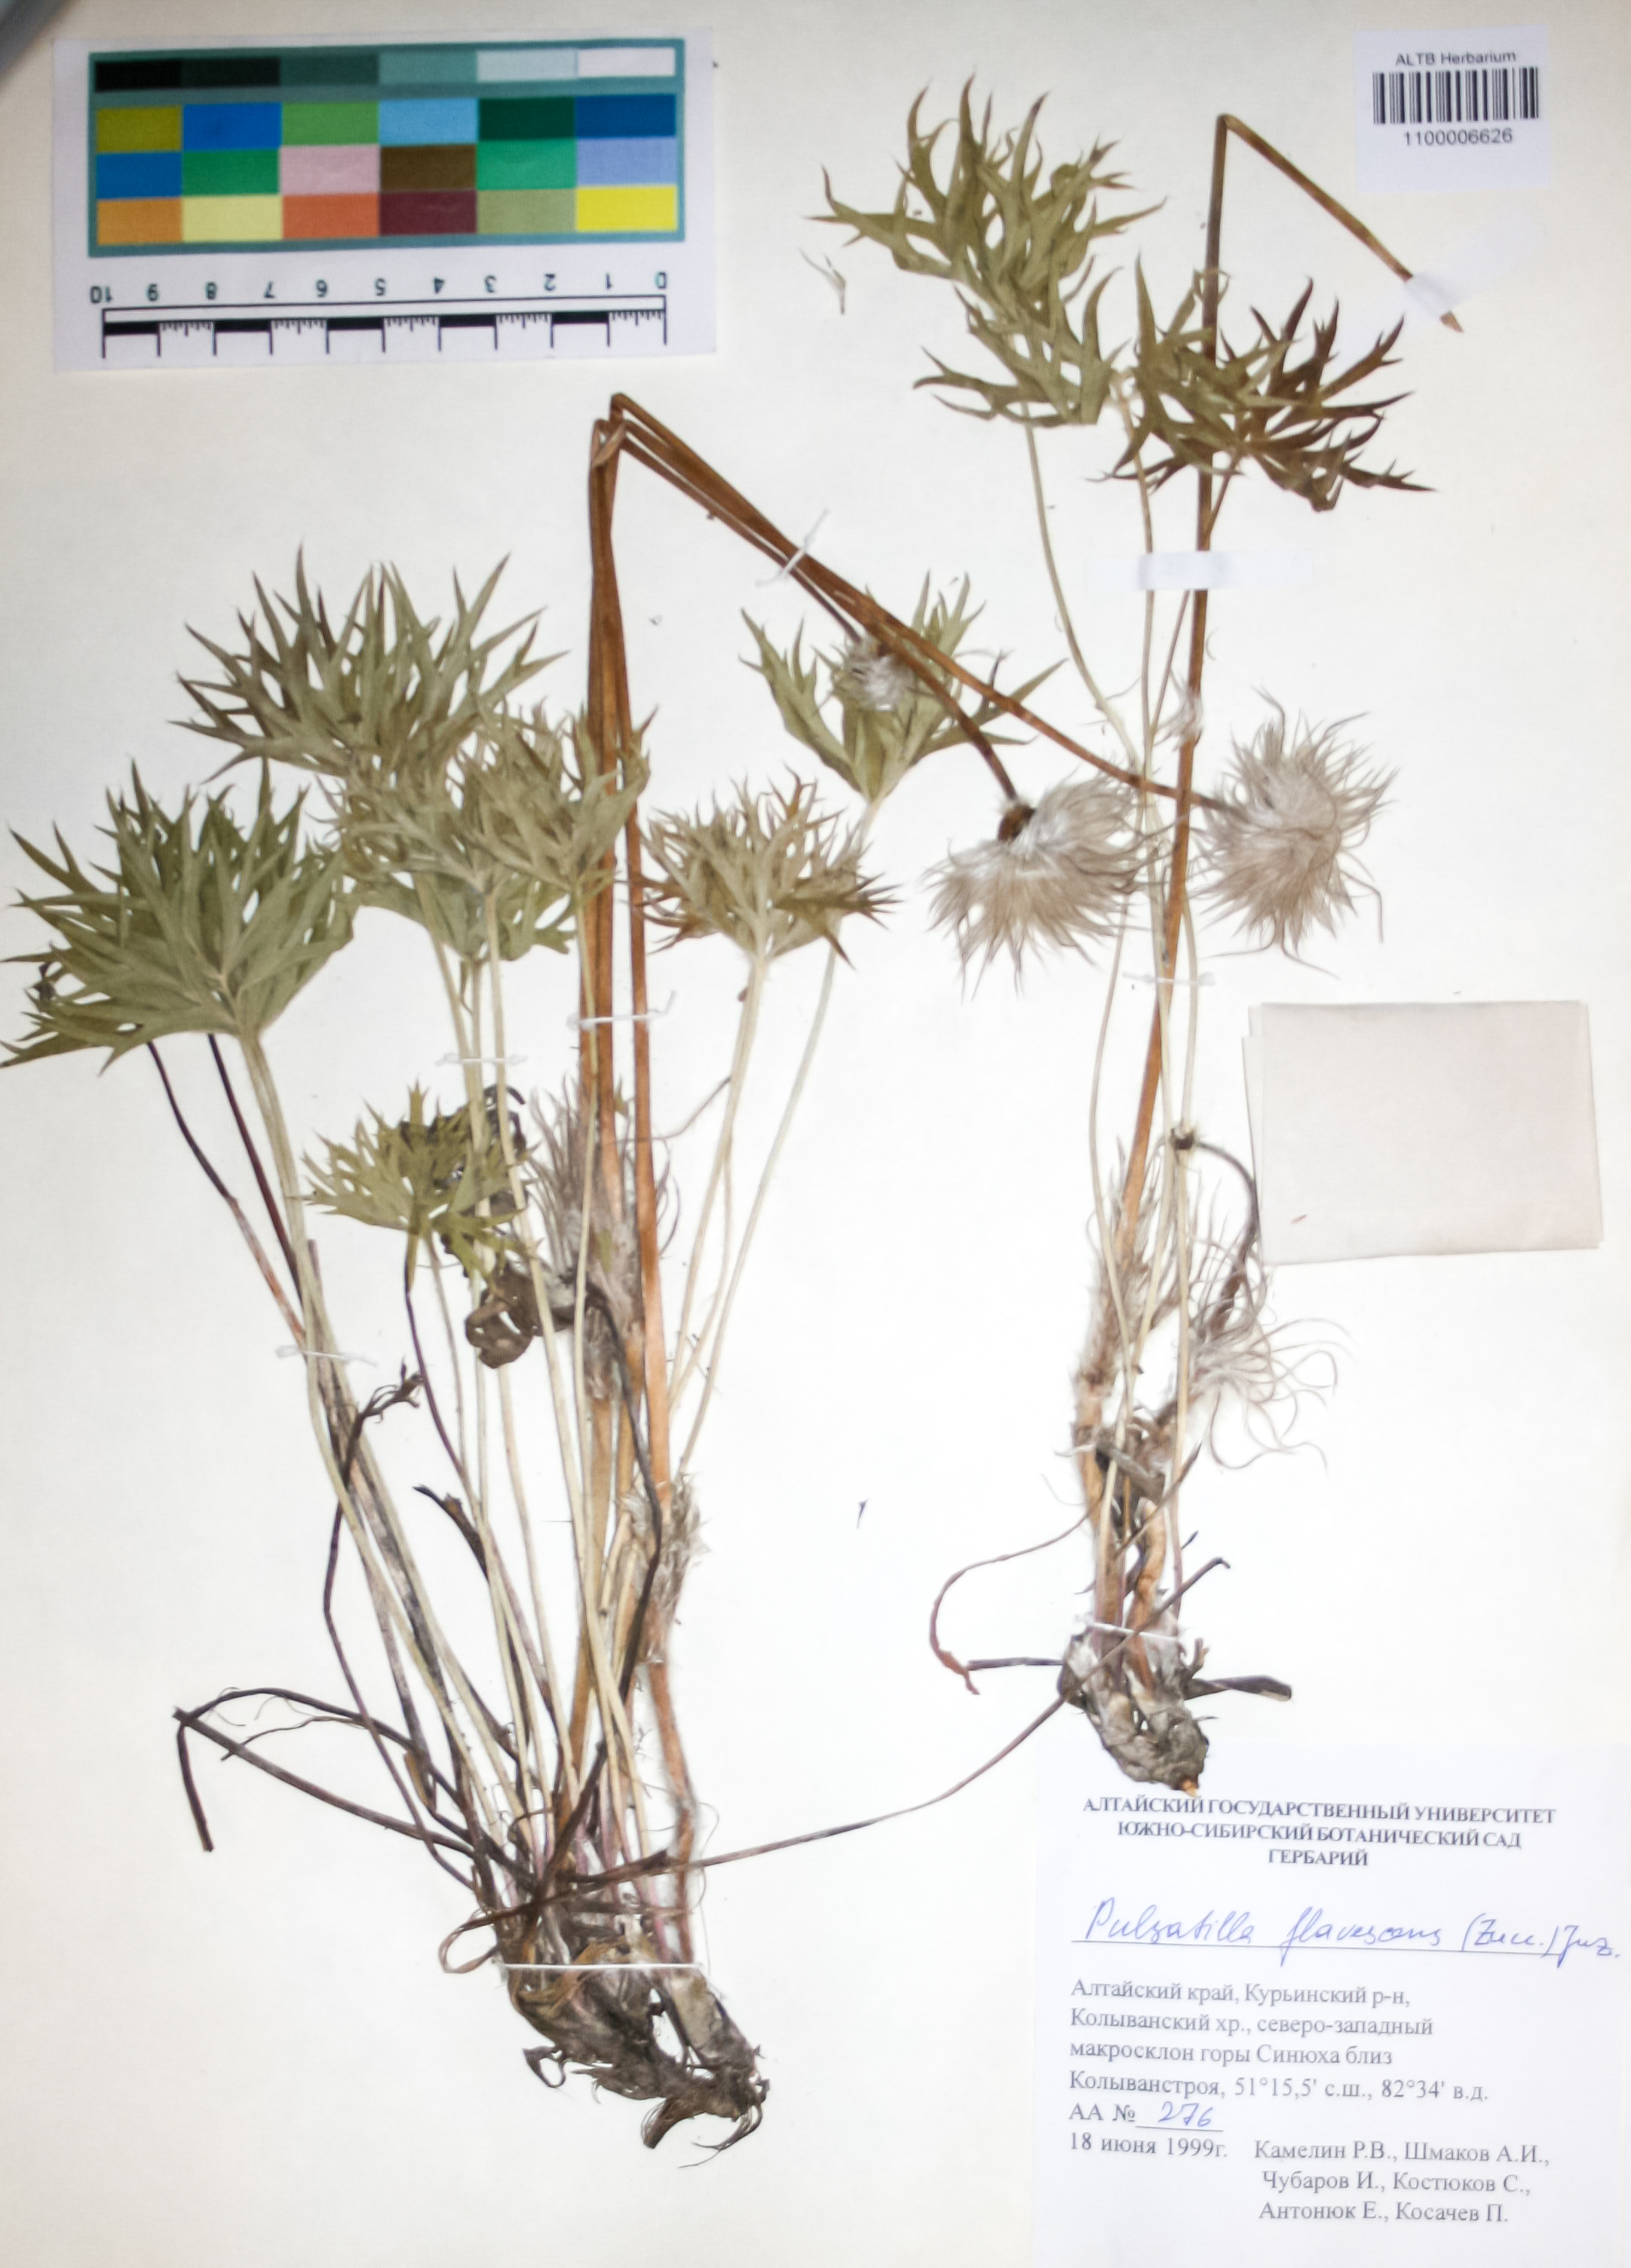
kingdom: Plantae
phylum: Tracheophyta
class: Magnoliopsida
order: Ranunculales
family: Ranunculaceae
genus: Pulsatilla
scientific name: Pulsatilla patens
